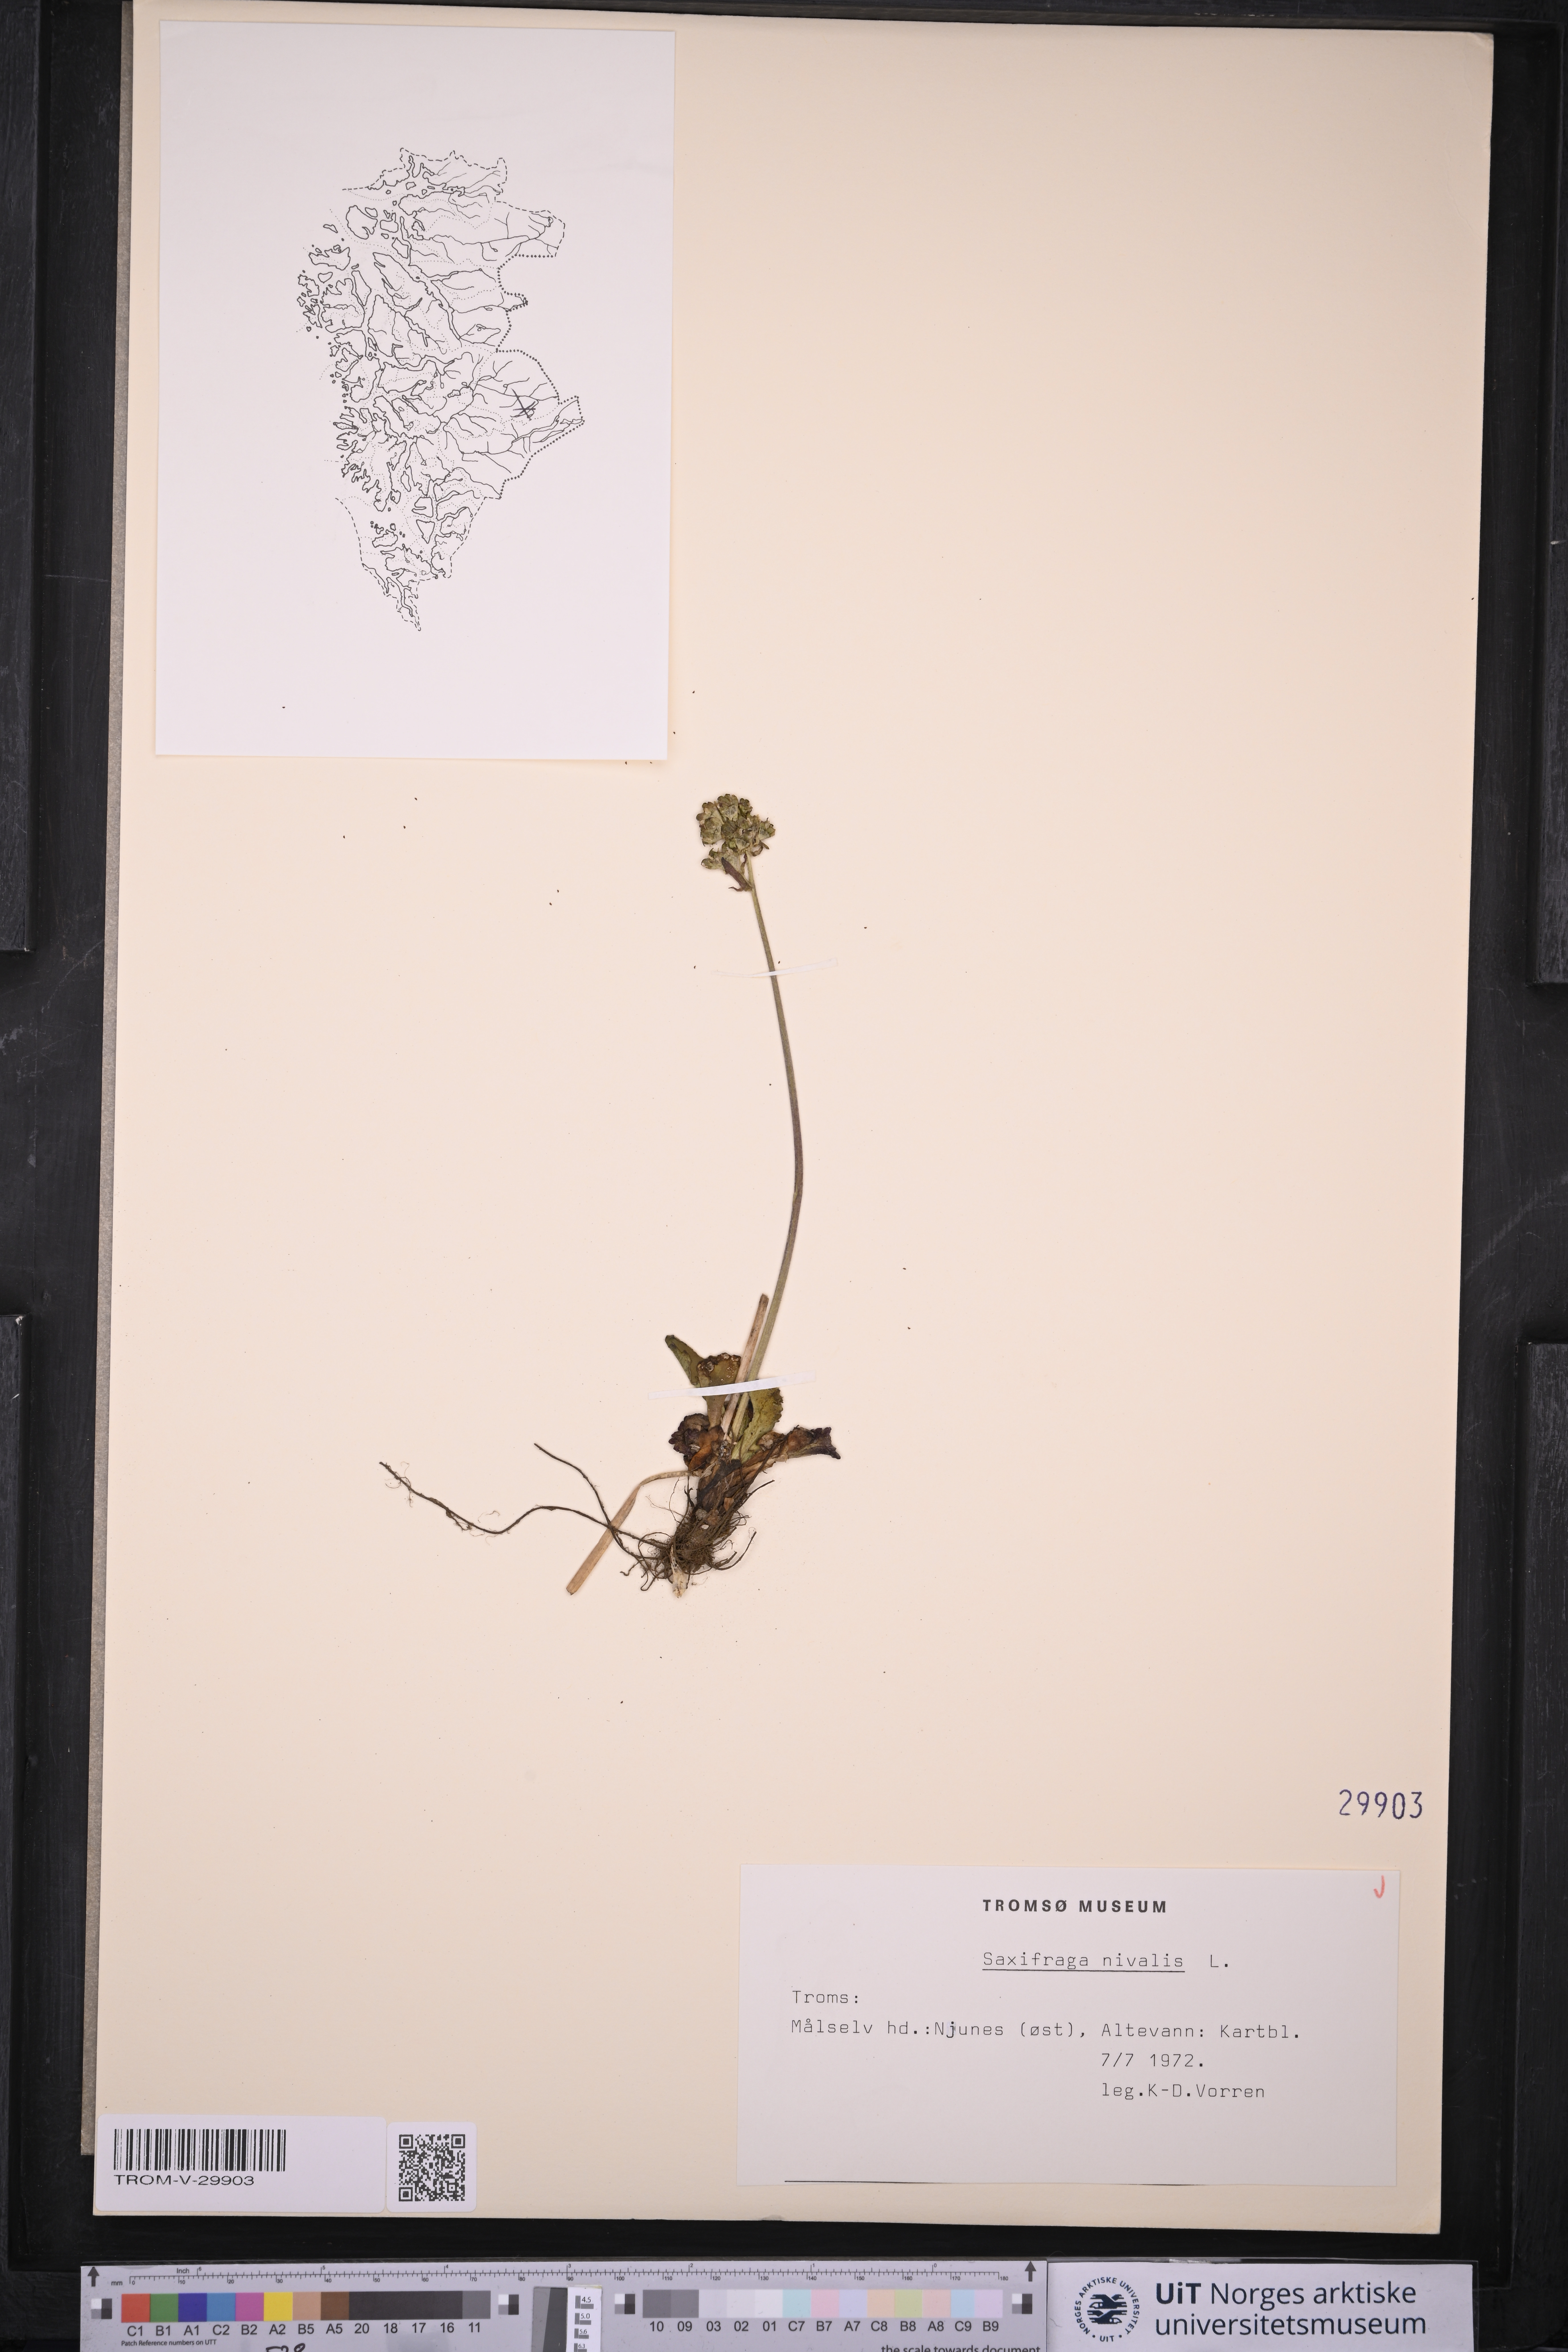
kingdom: Plantae
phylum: Tracheophyta
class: Magnoliopsida
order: Saxifragales
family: Saxifragaceae
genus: Micranthes
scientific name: Micranthes nivalis
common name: Alpine saxifrage
